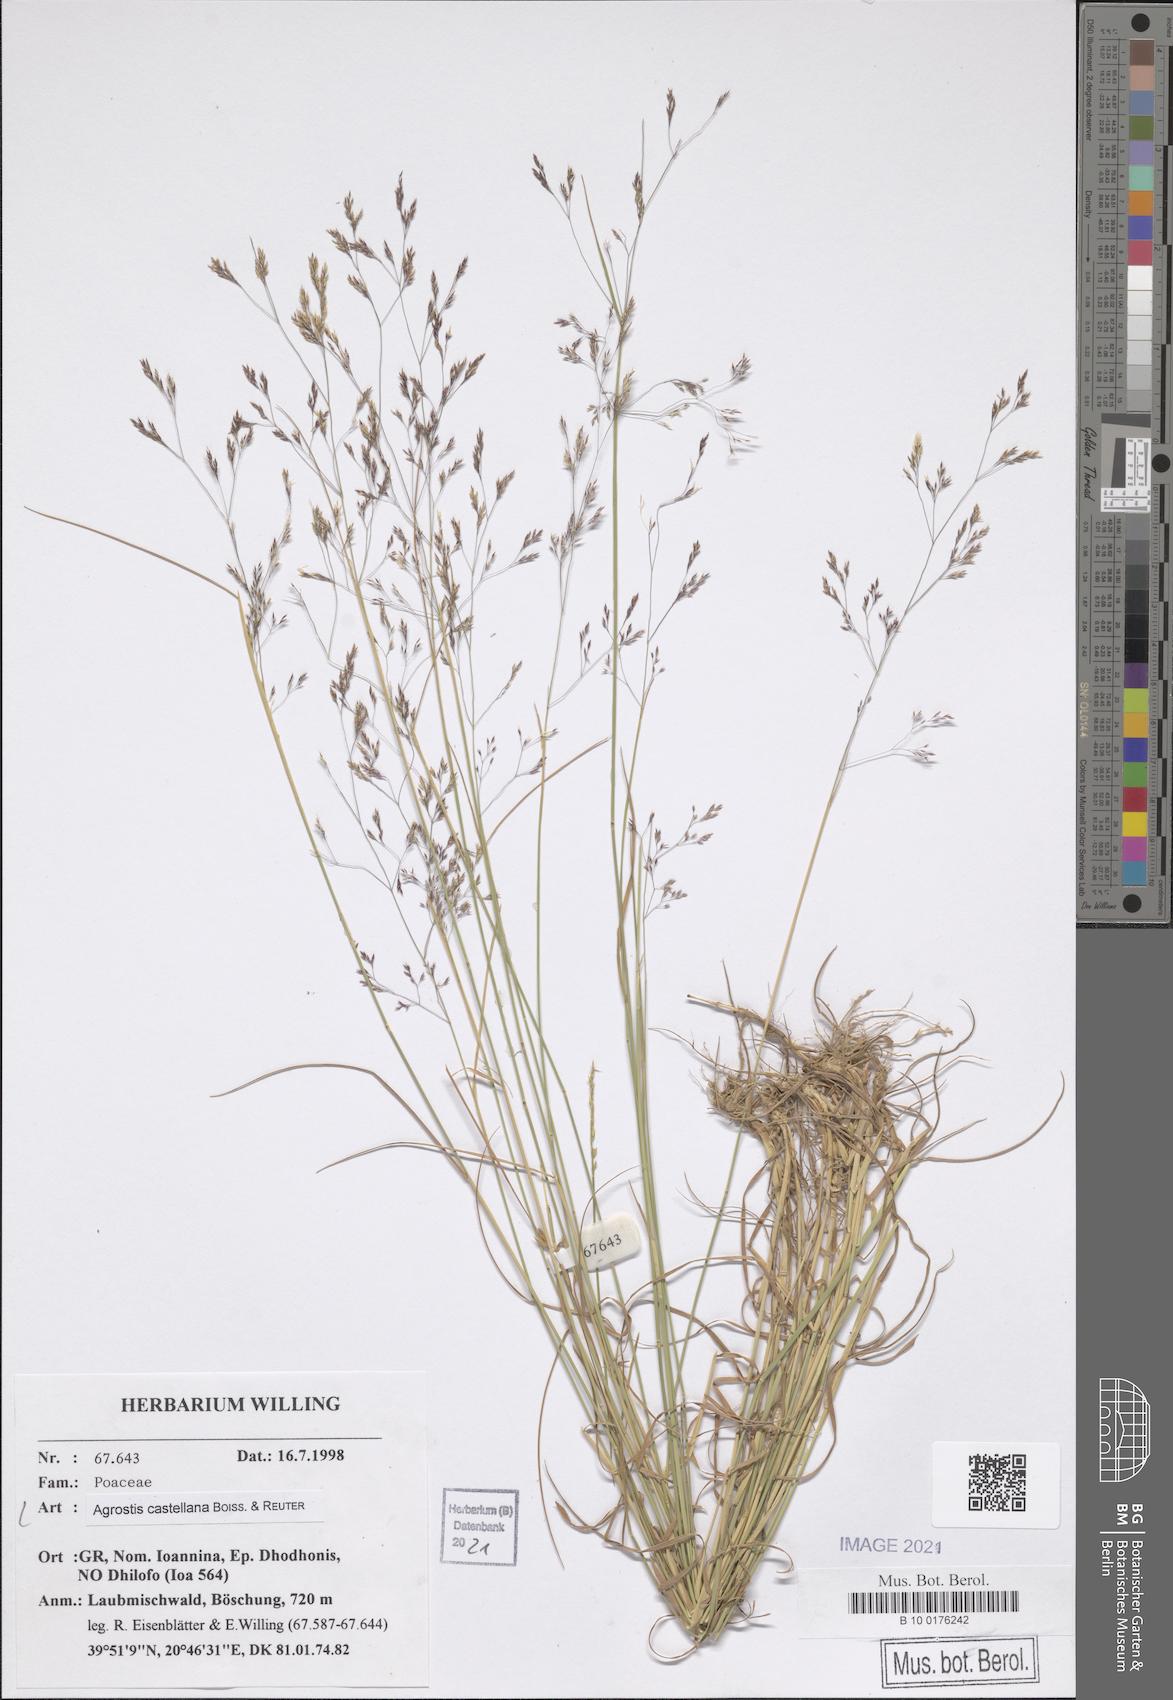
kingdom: Plantae
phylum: Tracheophyta
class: Liliopsida
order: Poales
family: Poaceae
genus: Agrostis
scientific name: Agrostis castellana
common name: Highland bent
